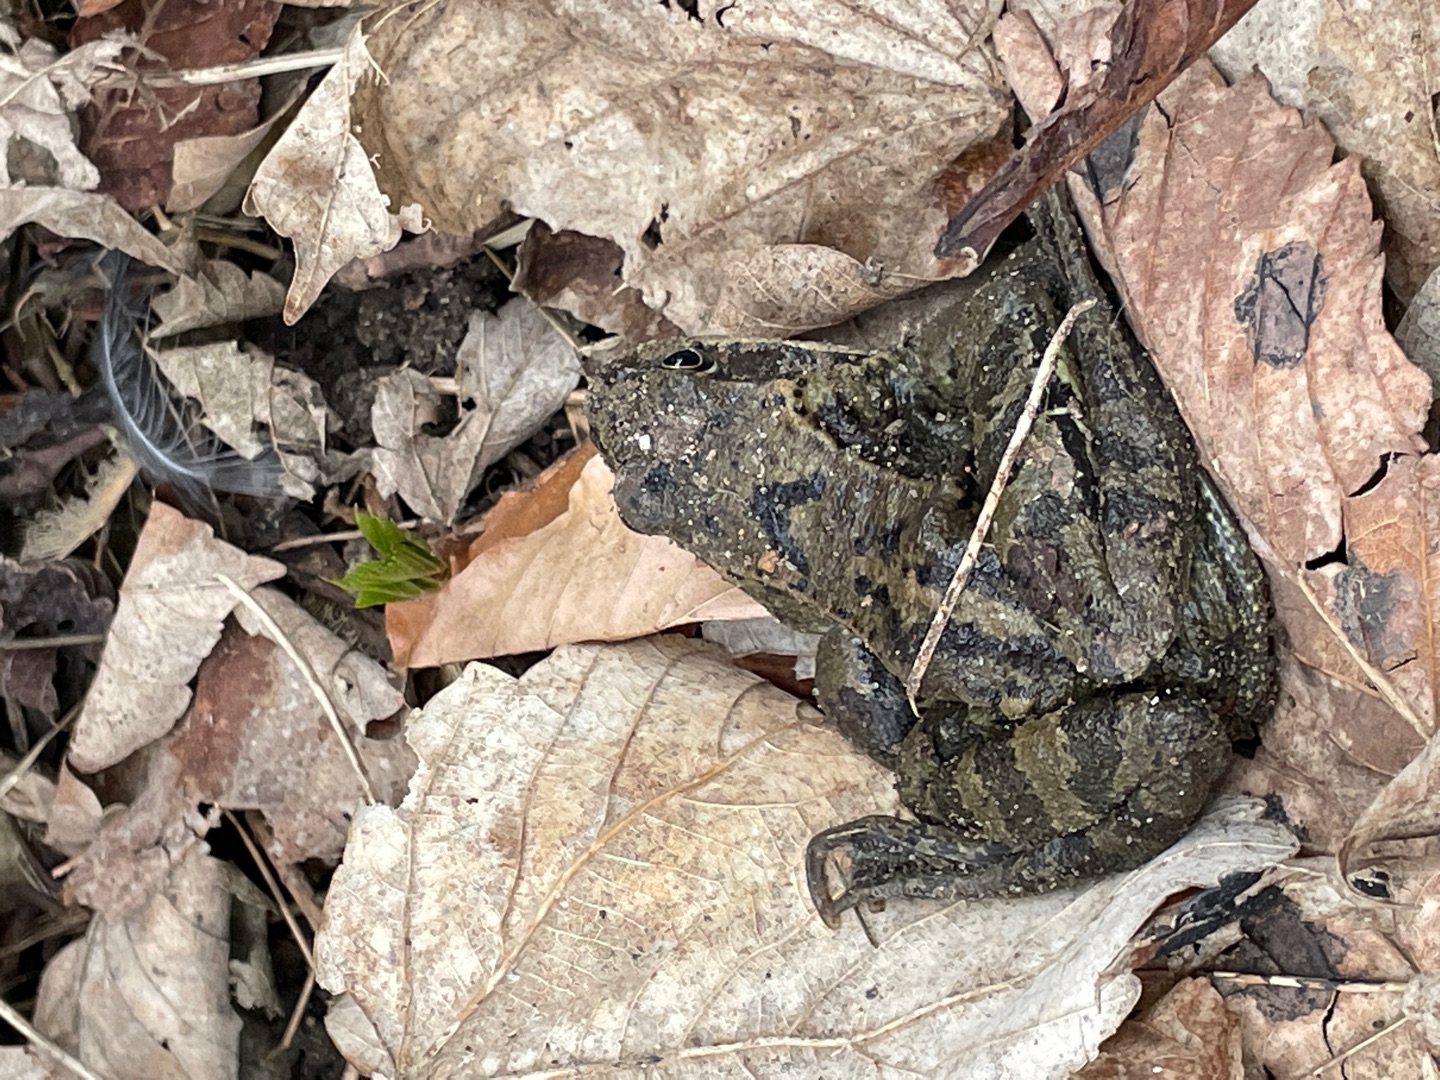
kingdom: Animalia
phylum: Chordata
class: Amphibia
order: Anura
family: Ranidae
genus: Rana
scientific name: Rana temporaria
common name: Butsnudet frø
